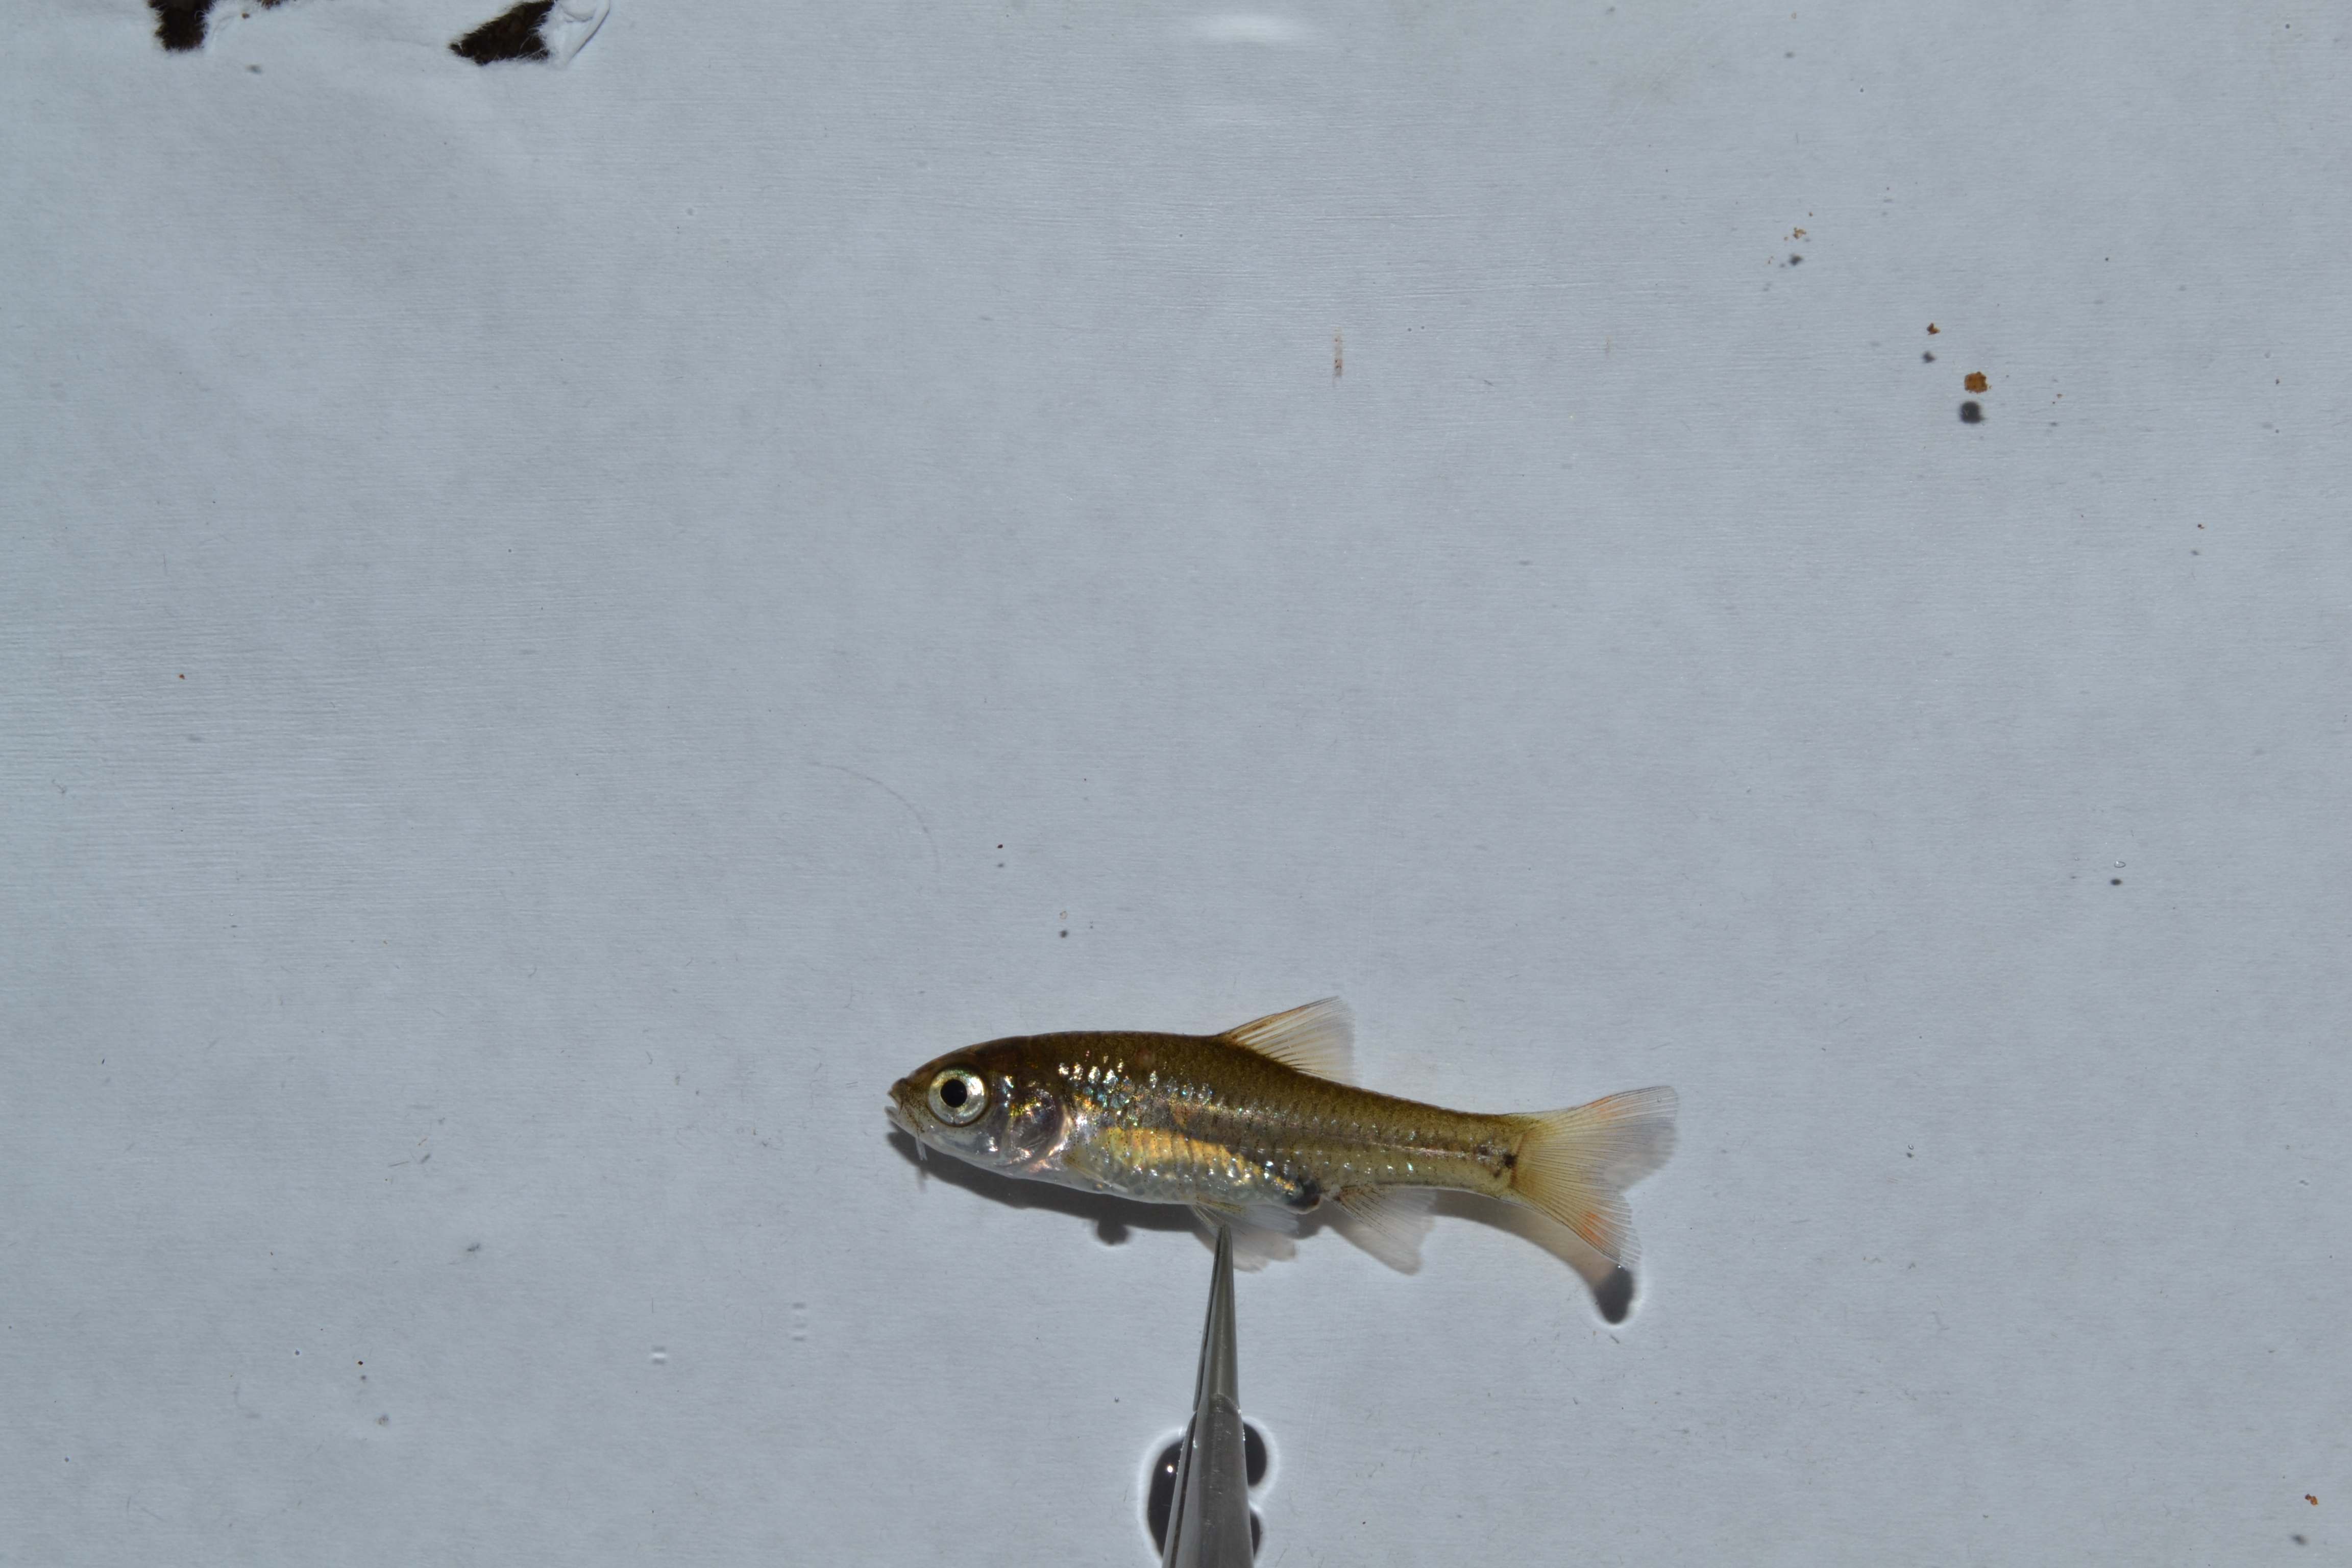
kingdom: Animalia
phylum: Chordata
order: Cypriniformes
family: Cyprinidae
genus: Enteromius
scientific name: Enteromius
